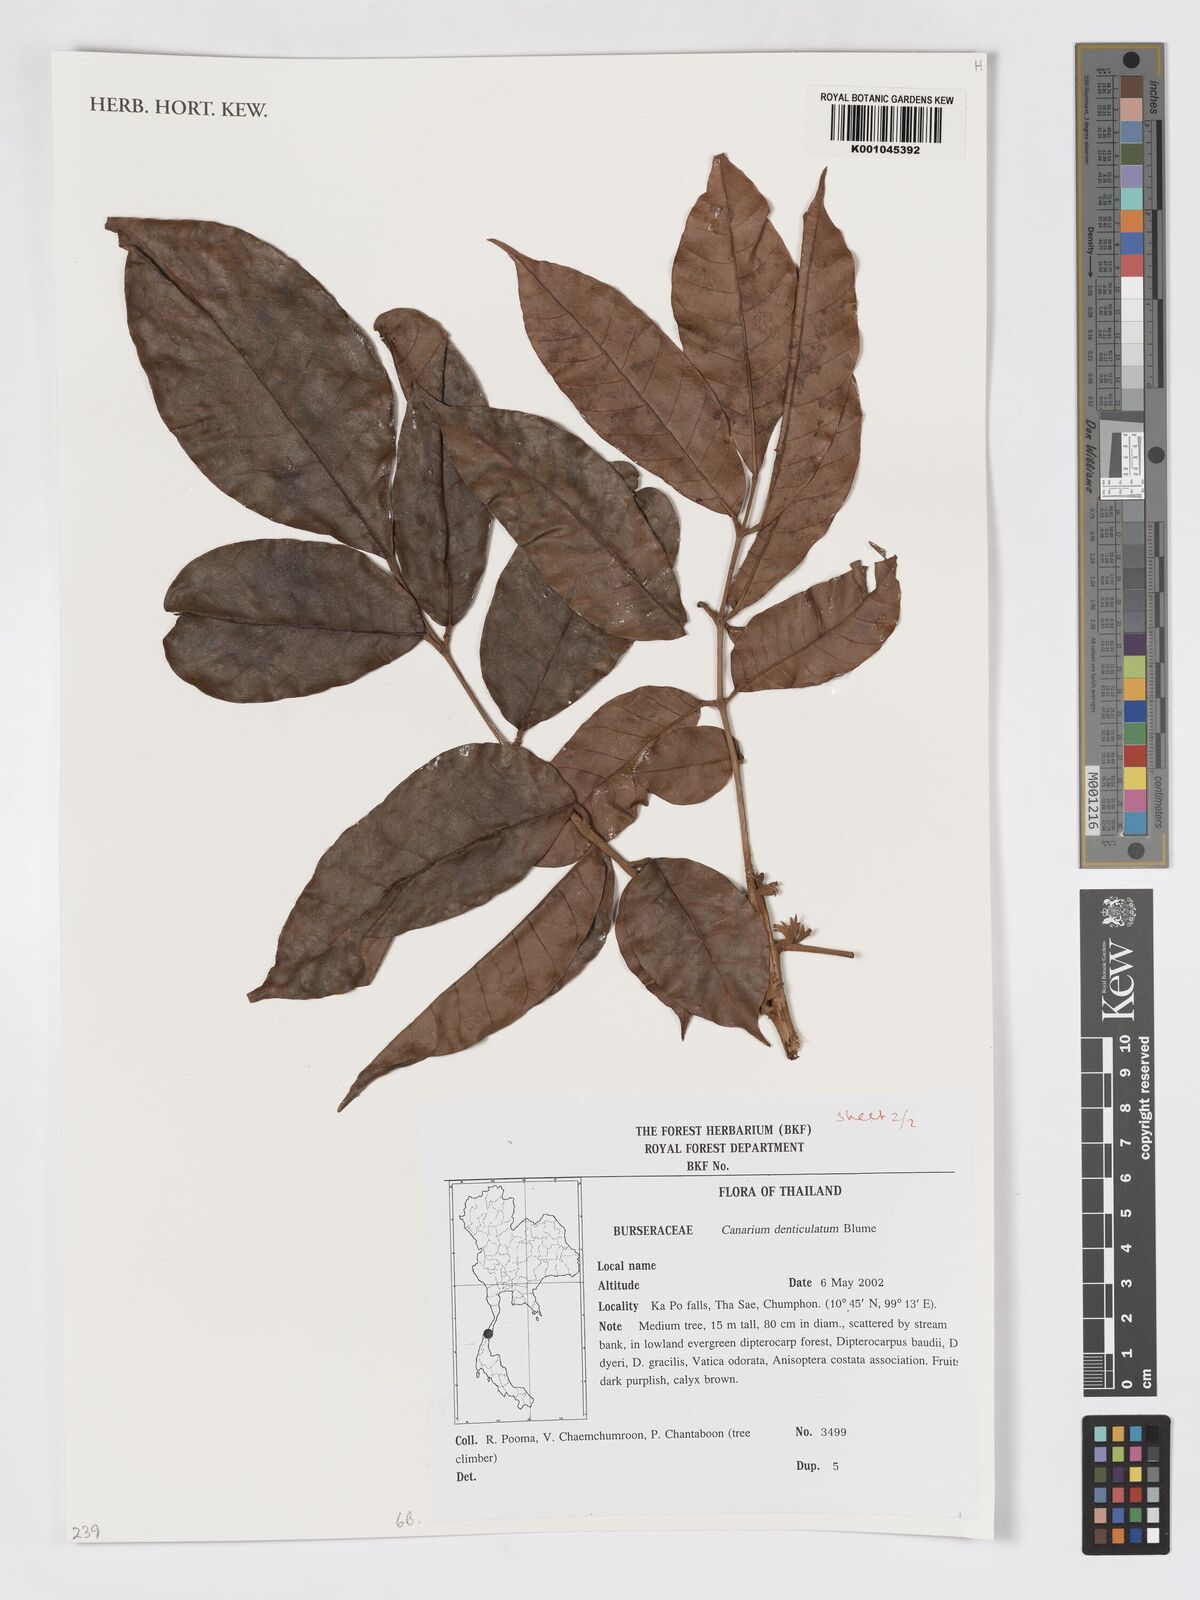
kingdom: Plantae
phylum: Tracheophyta
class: Magnoliopsida
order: Sapindales
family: Burseraceae
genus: Canarium
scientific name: Canarium denticulatum
